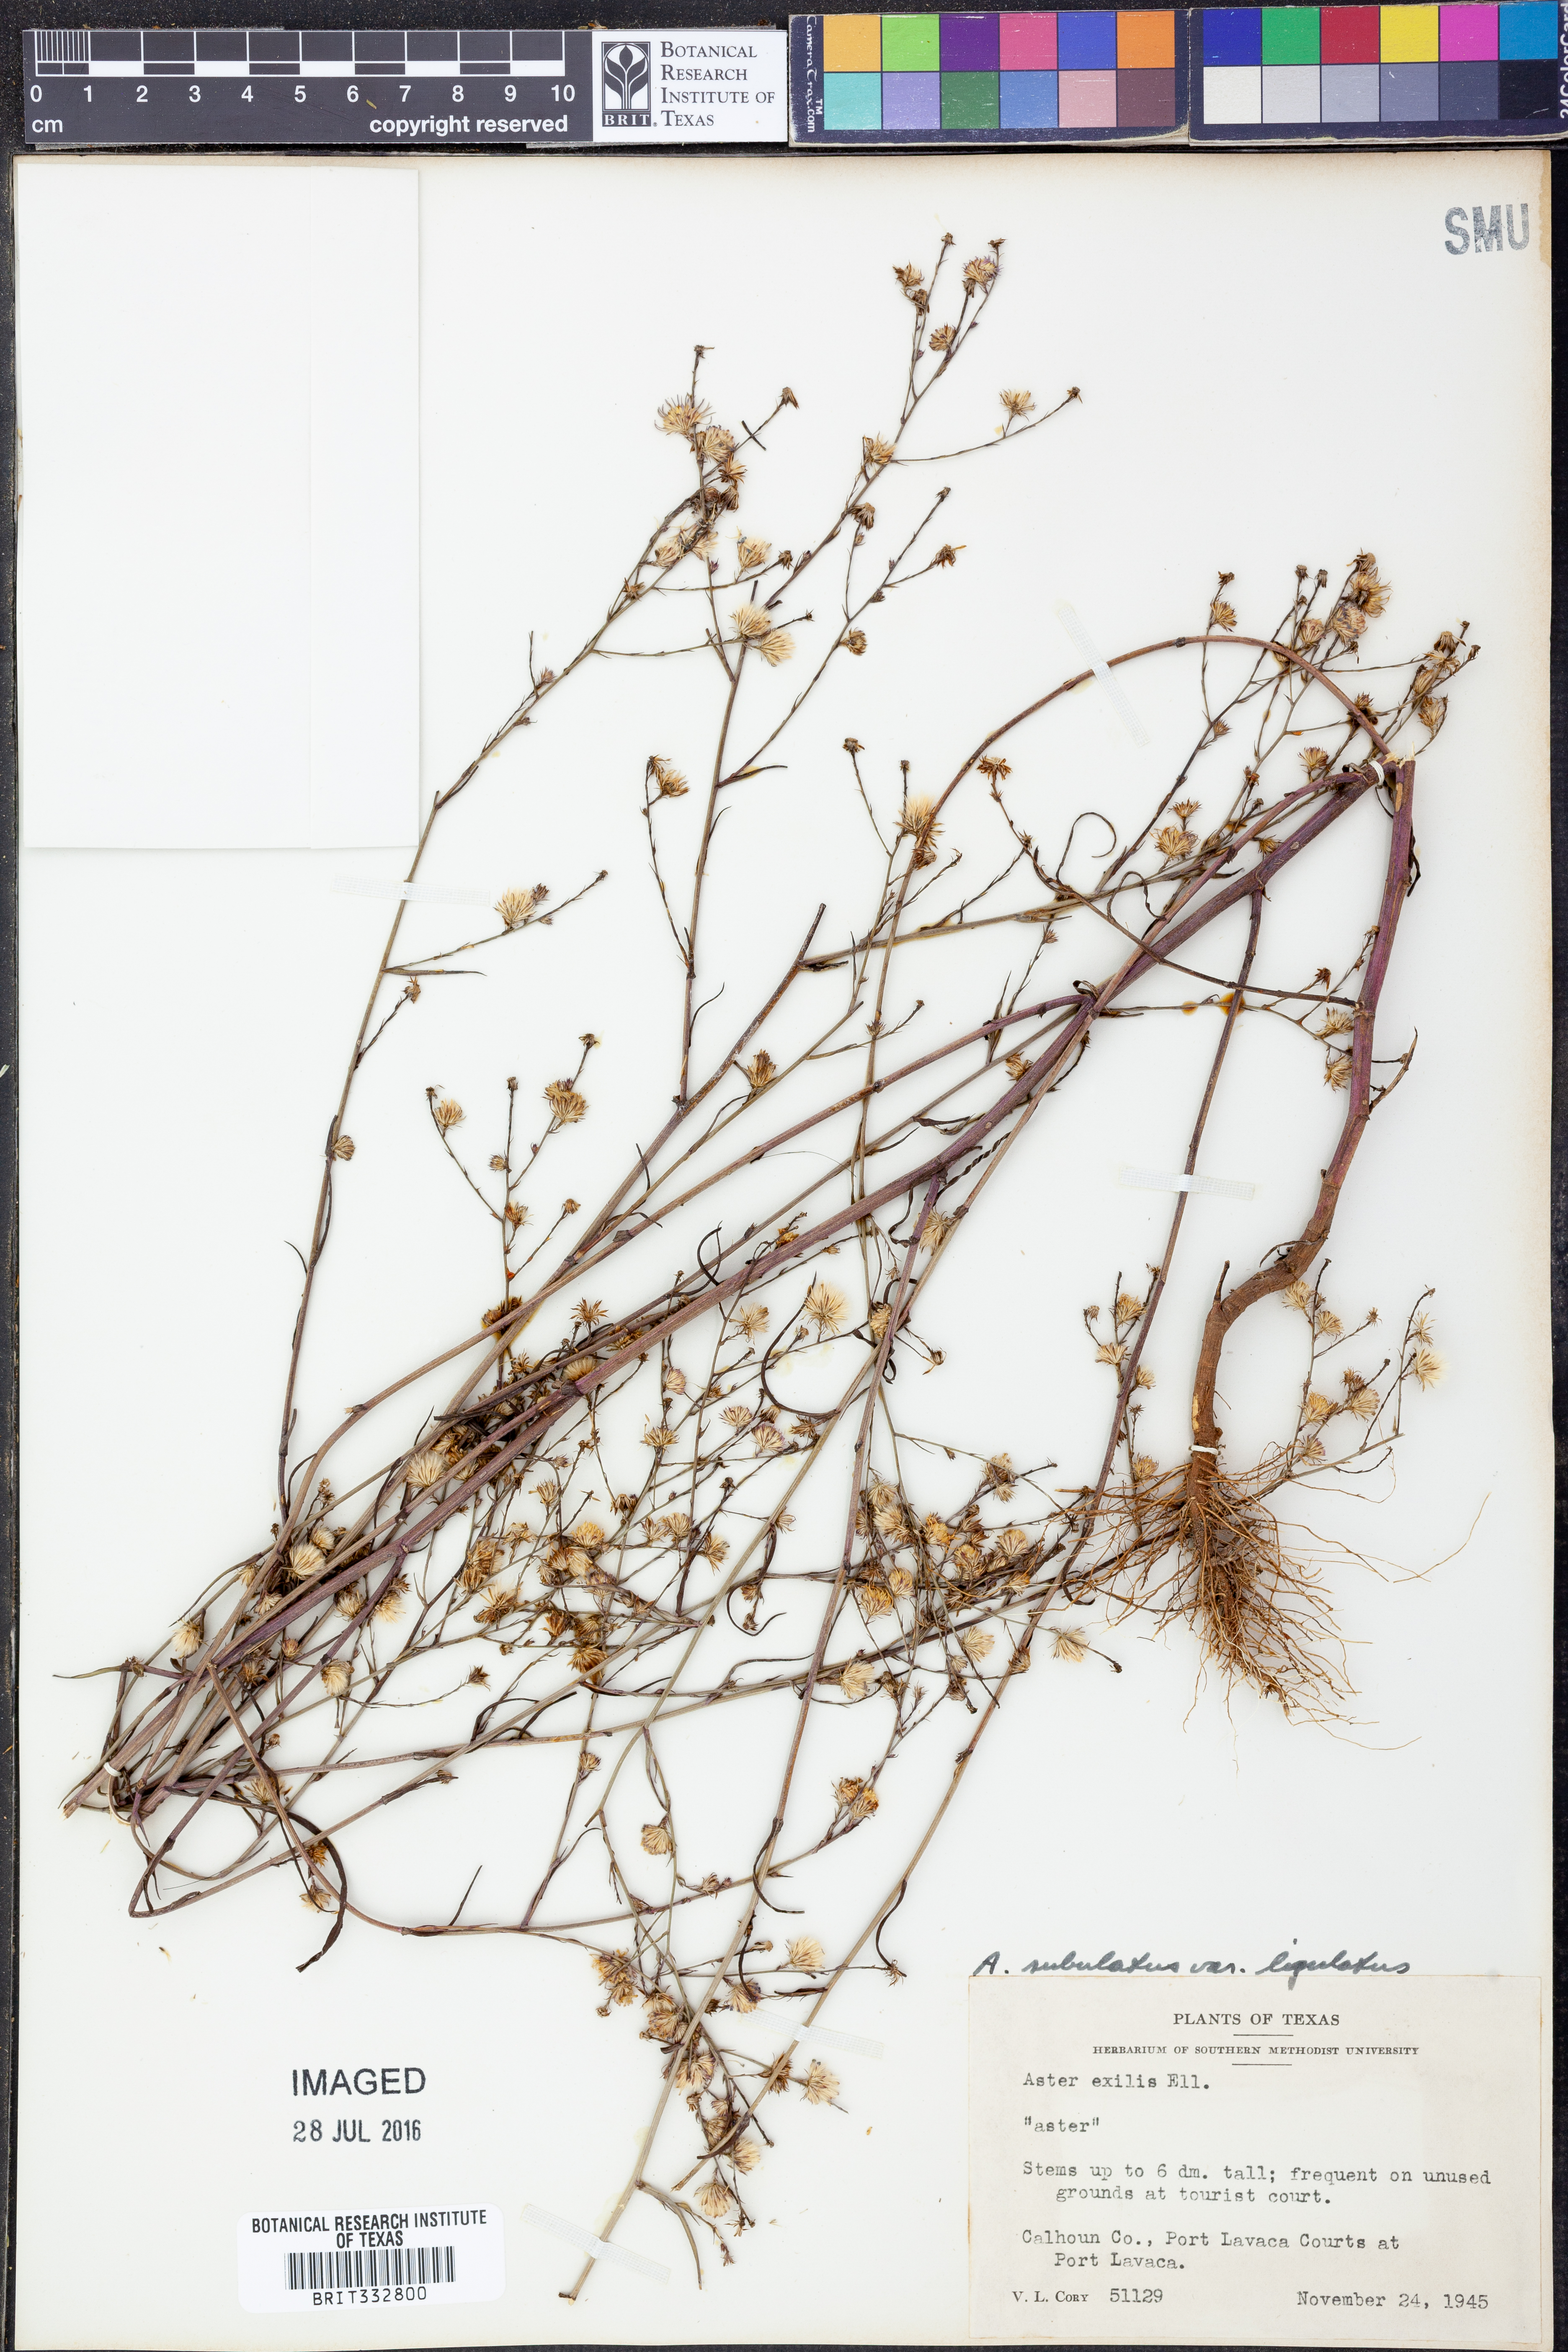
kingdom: Plantae
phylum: Tracheophyta
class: Magnoliopsida
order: Asterales
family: Asteraceae
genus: Symphyotrichum
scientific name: Symphyotrichum divaricatum
